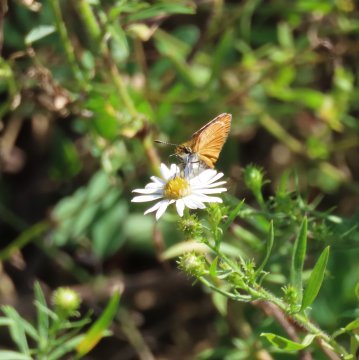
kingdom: Animalia
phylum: Arthropoda
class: Insecta
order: Lepidoptera
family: Hesperiidae
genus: Ancyloxypha
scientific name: Ancyloxypha numitor
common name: Least Skipper
